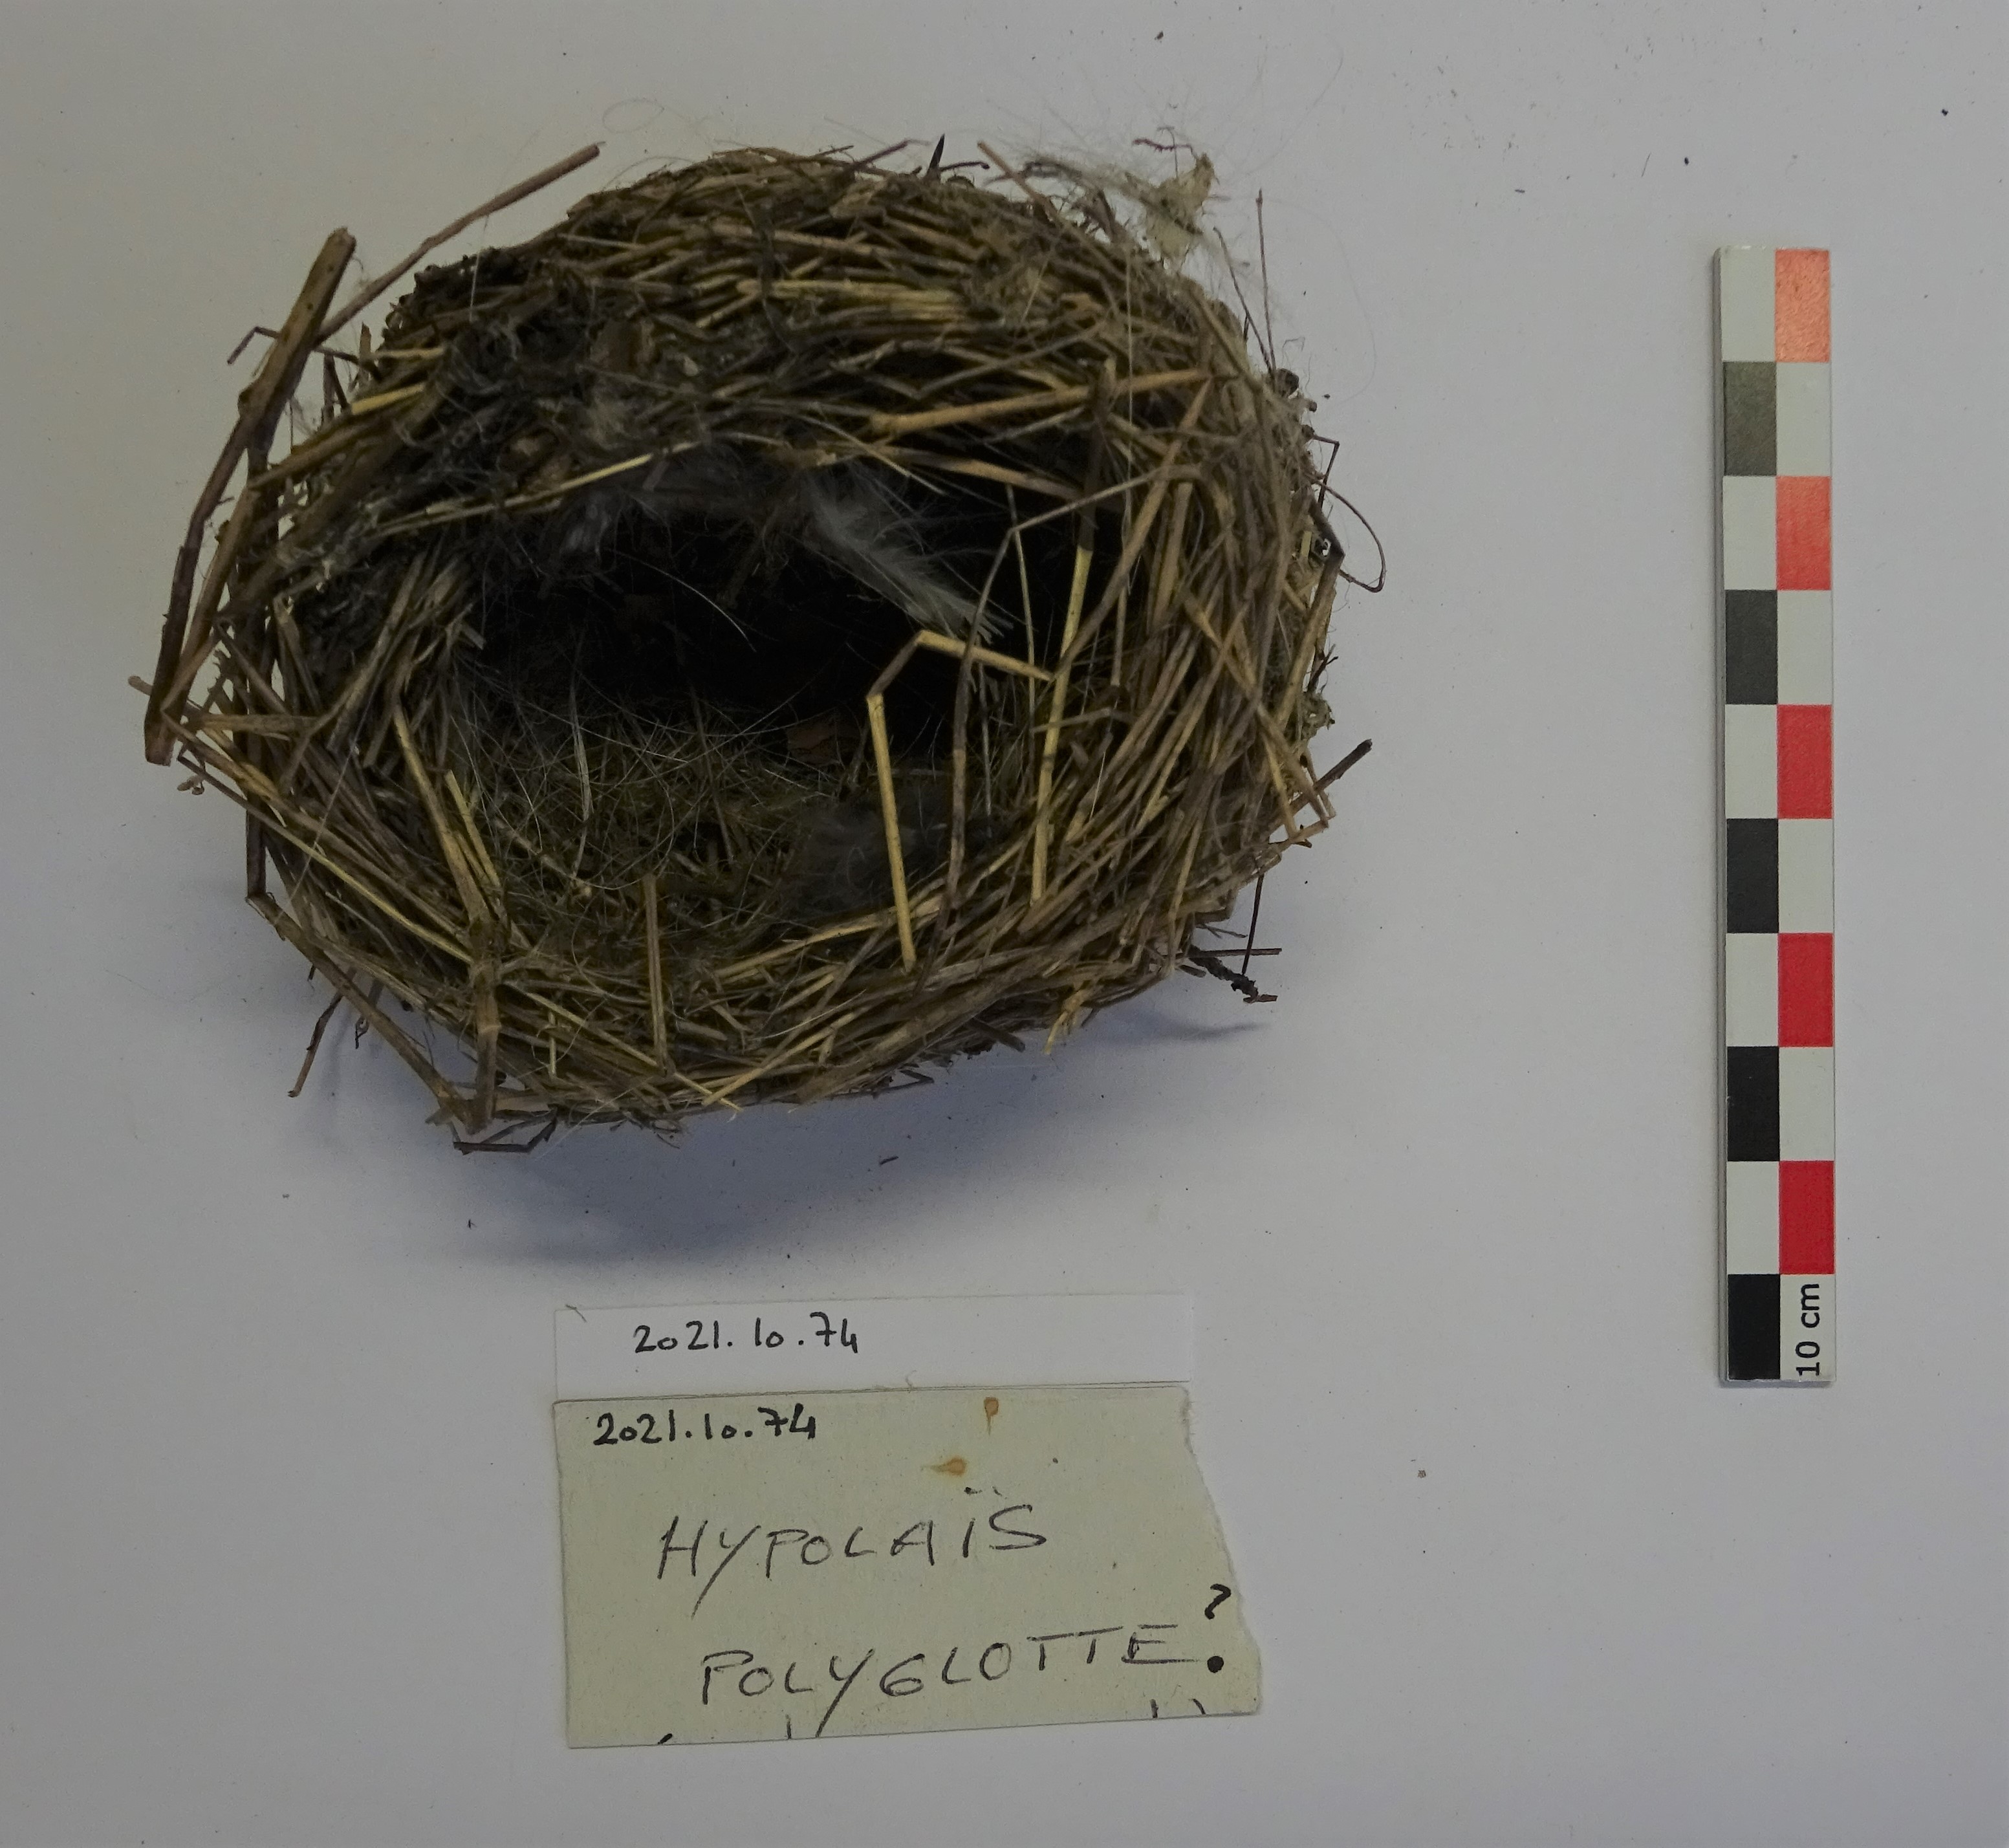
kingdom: Animalia
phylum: Chordata
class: Aves
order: Passeriformes
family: Acrocephalidae
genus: Hippolais
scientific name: Hippolais polyglotta
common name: Melodious warbler
